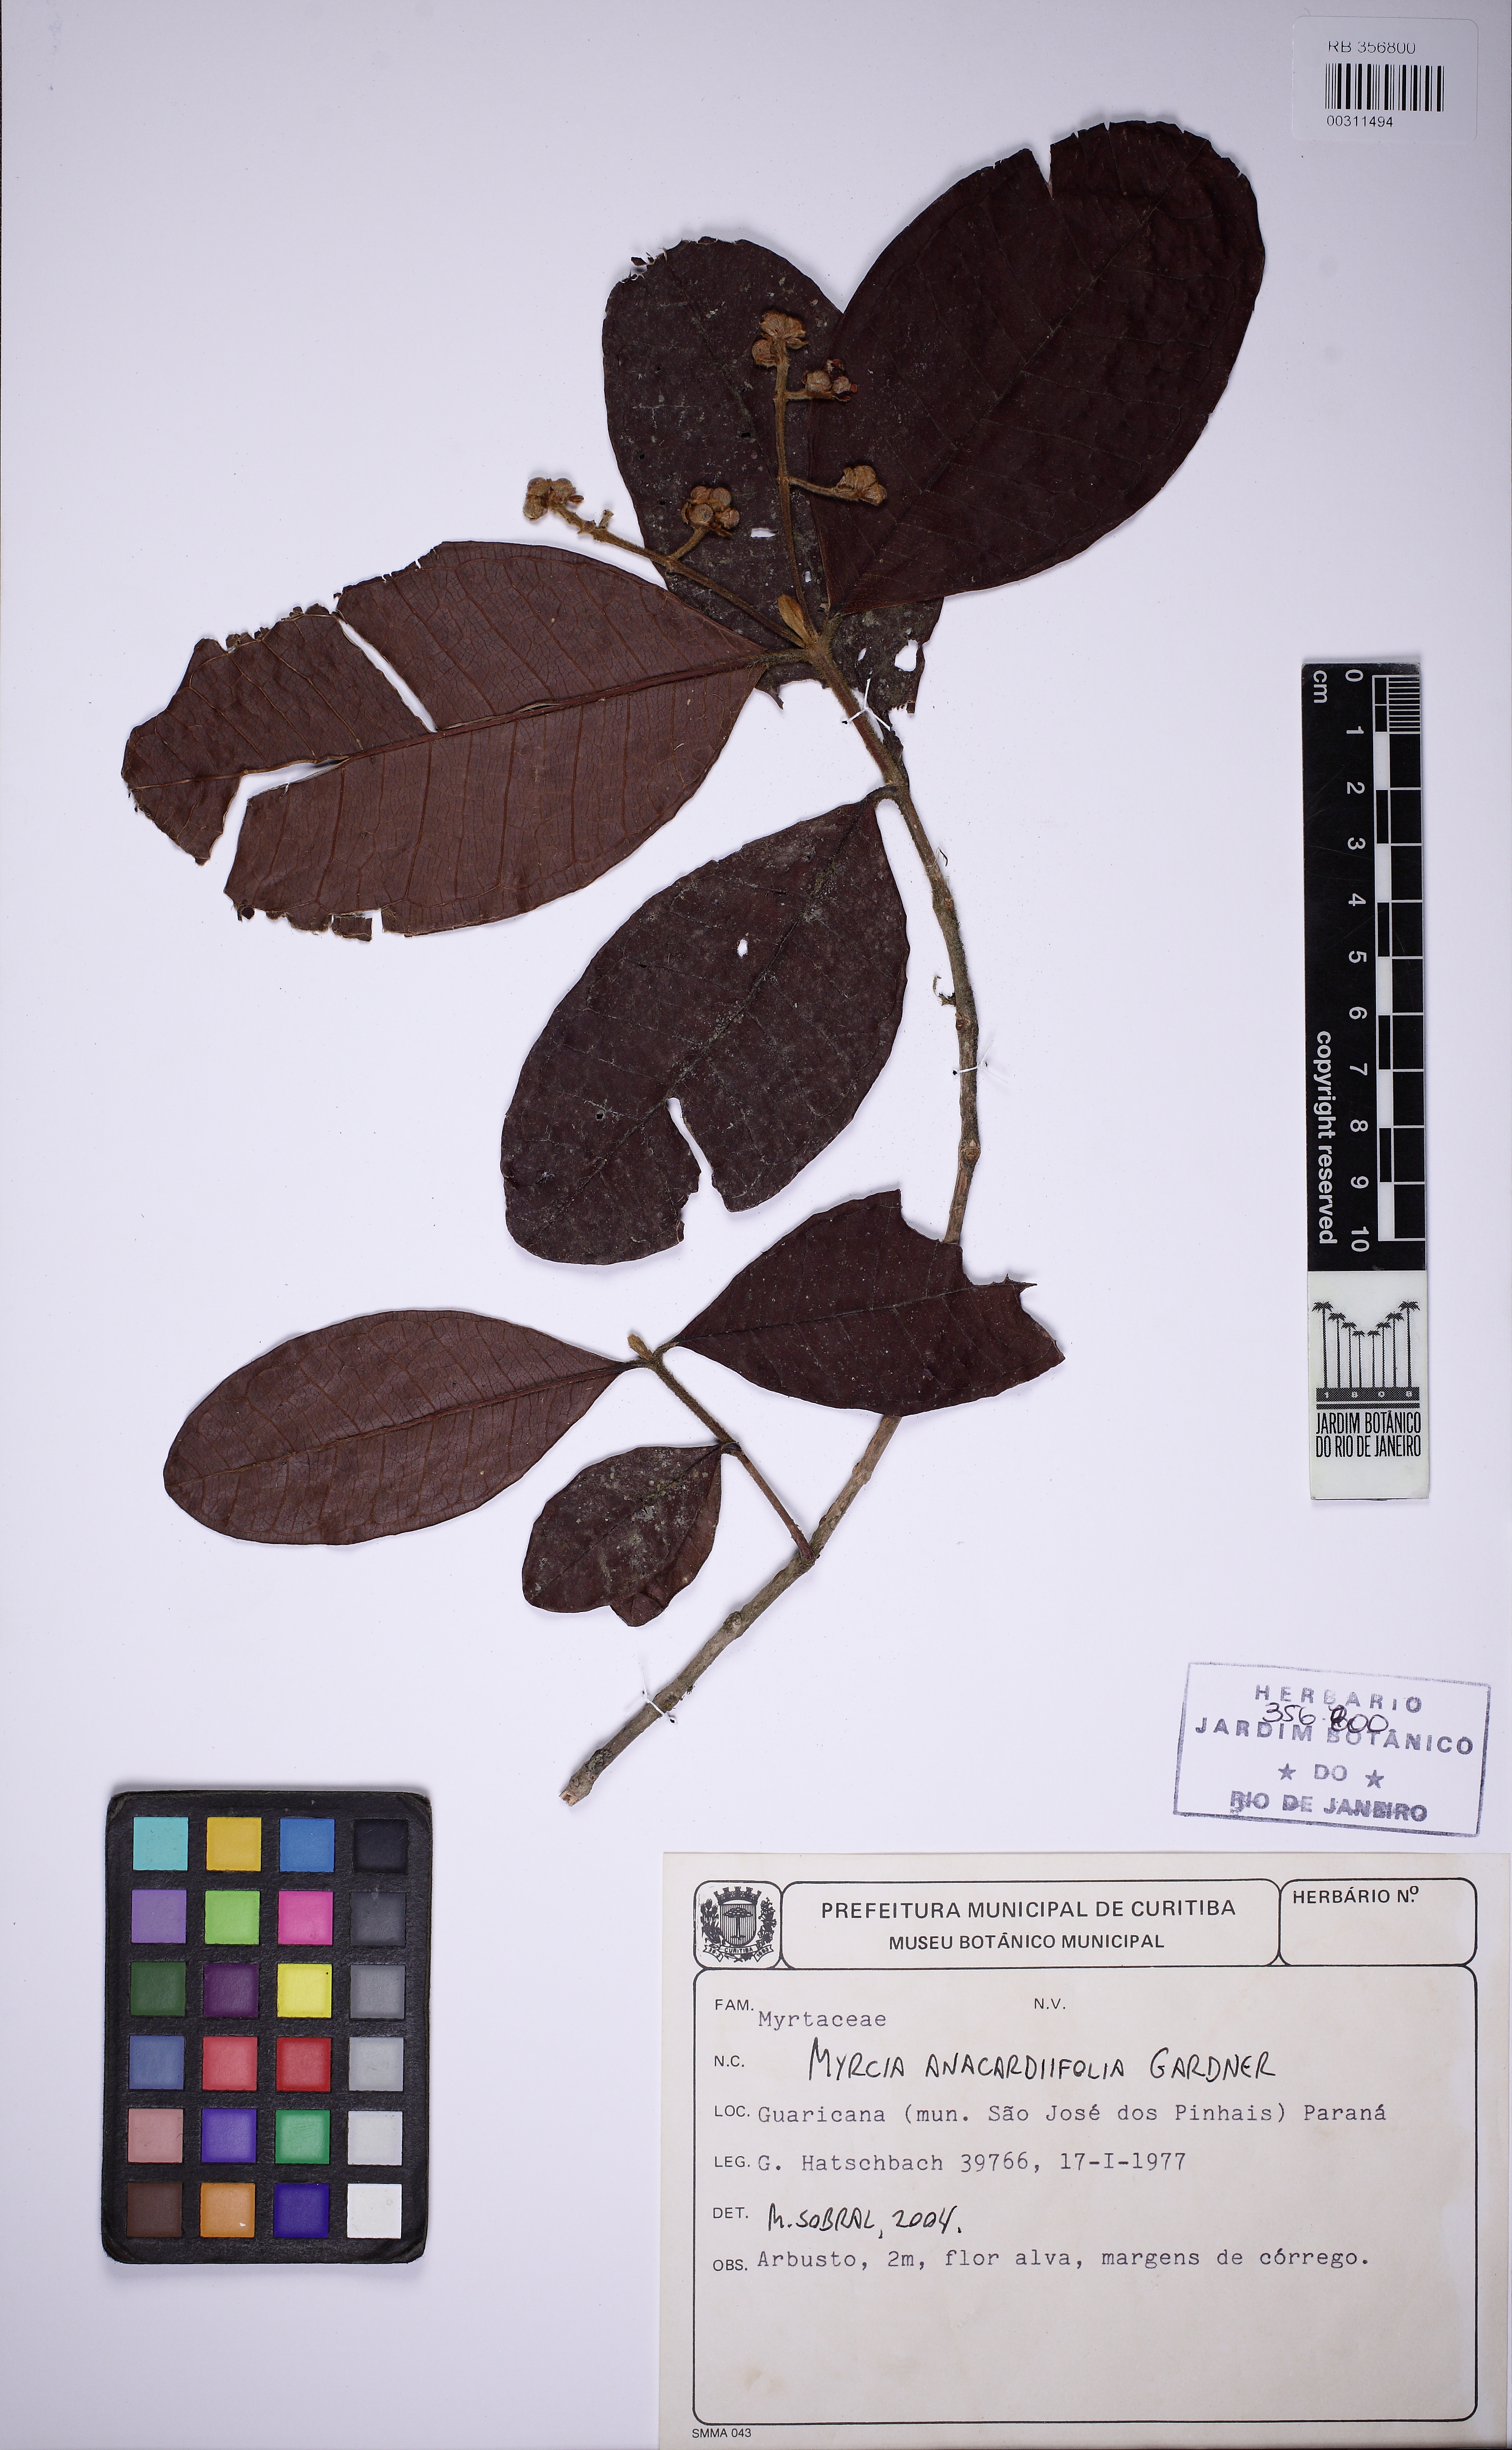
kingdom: Plantae
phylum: Tracheophyta
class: Magnoliopsida
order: Myrtales
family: Myrtaceae
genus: Myrcia
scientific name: Myrcia anacardiifolia
